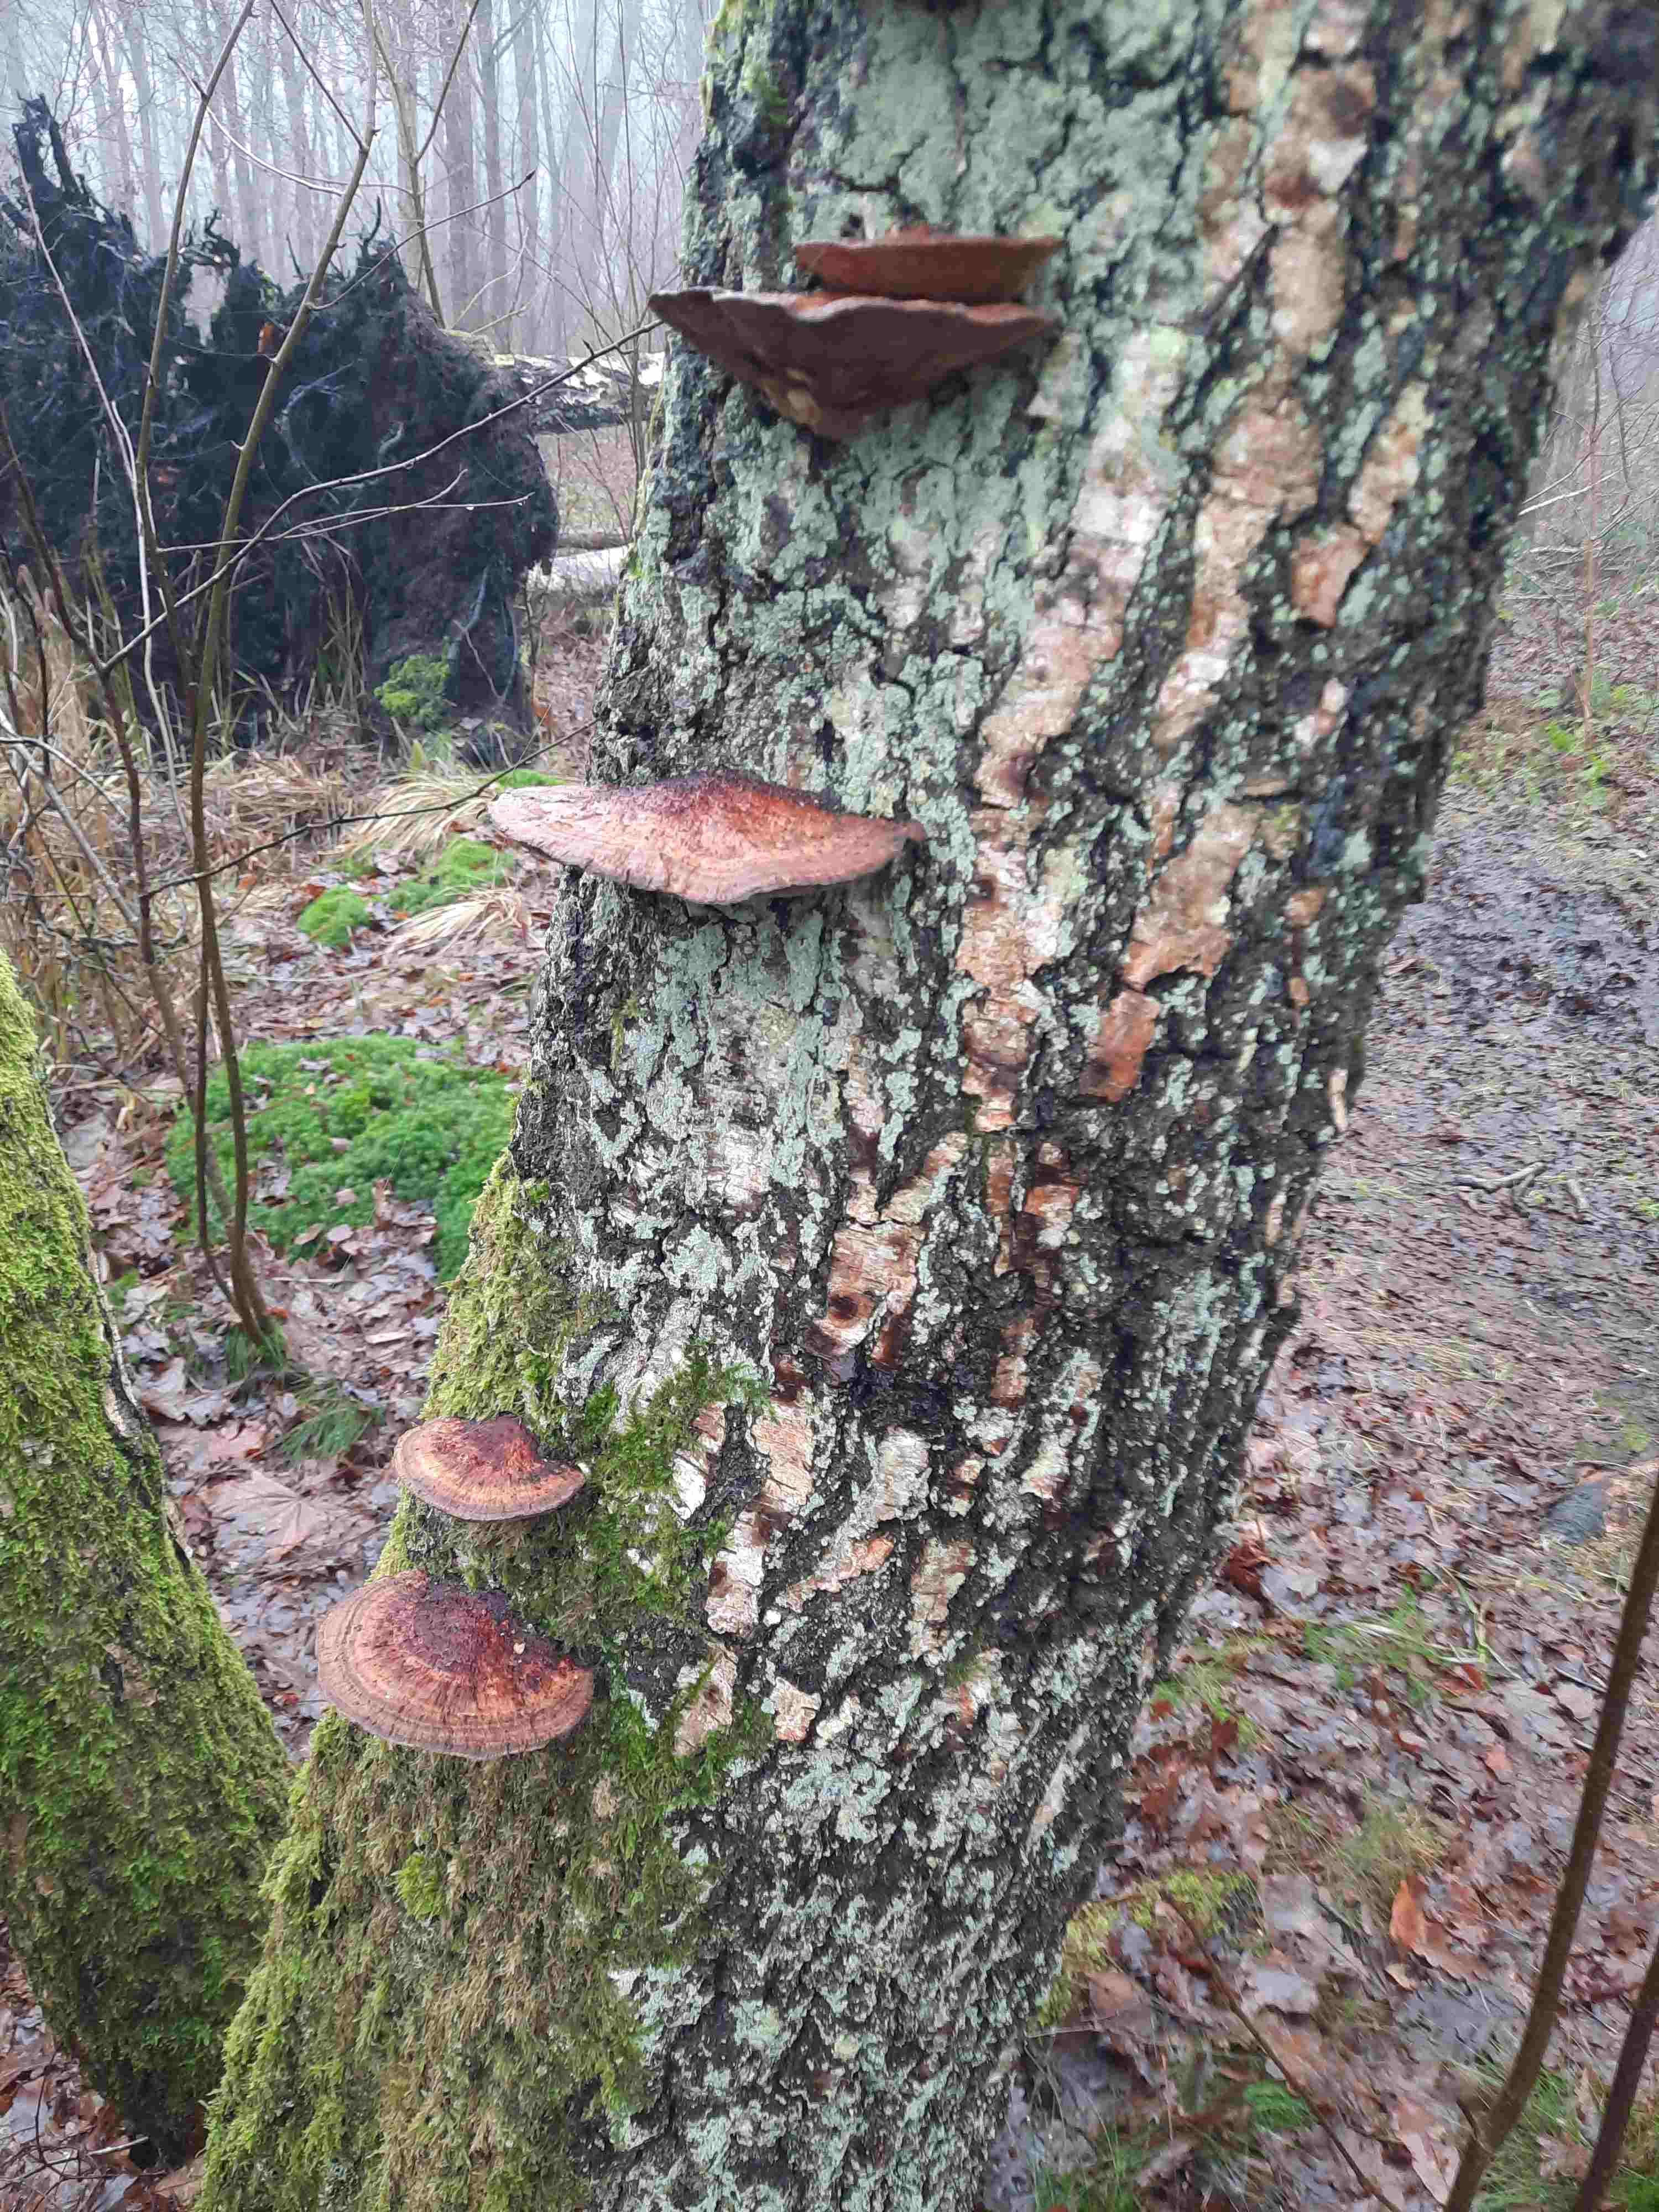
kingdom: Fungi
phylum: Basidiomycota
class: Agaricomycetes
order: Polyporales
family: Polyporaceae
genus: Daedaleopsis
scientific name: Daedaleopsis confragosa
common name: rødmende læderporesvamp
